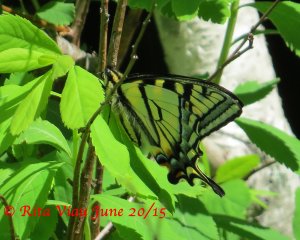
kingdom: Animalia
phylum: Arthropoda
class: Insecta
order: Lepidoptera
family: Papilionidae
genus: Pterourus
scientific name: Pterourus canadensis
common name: Canadian Tiger Swallowtail
